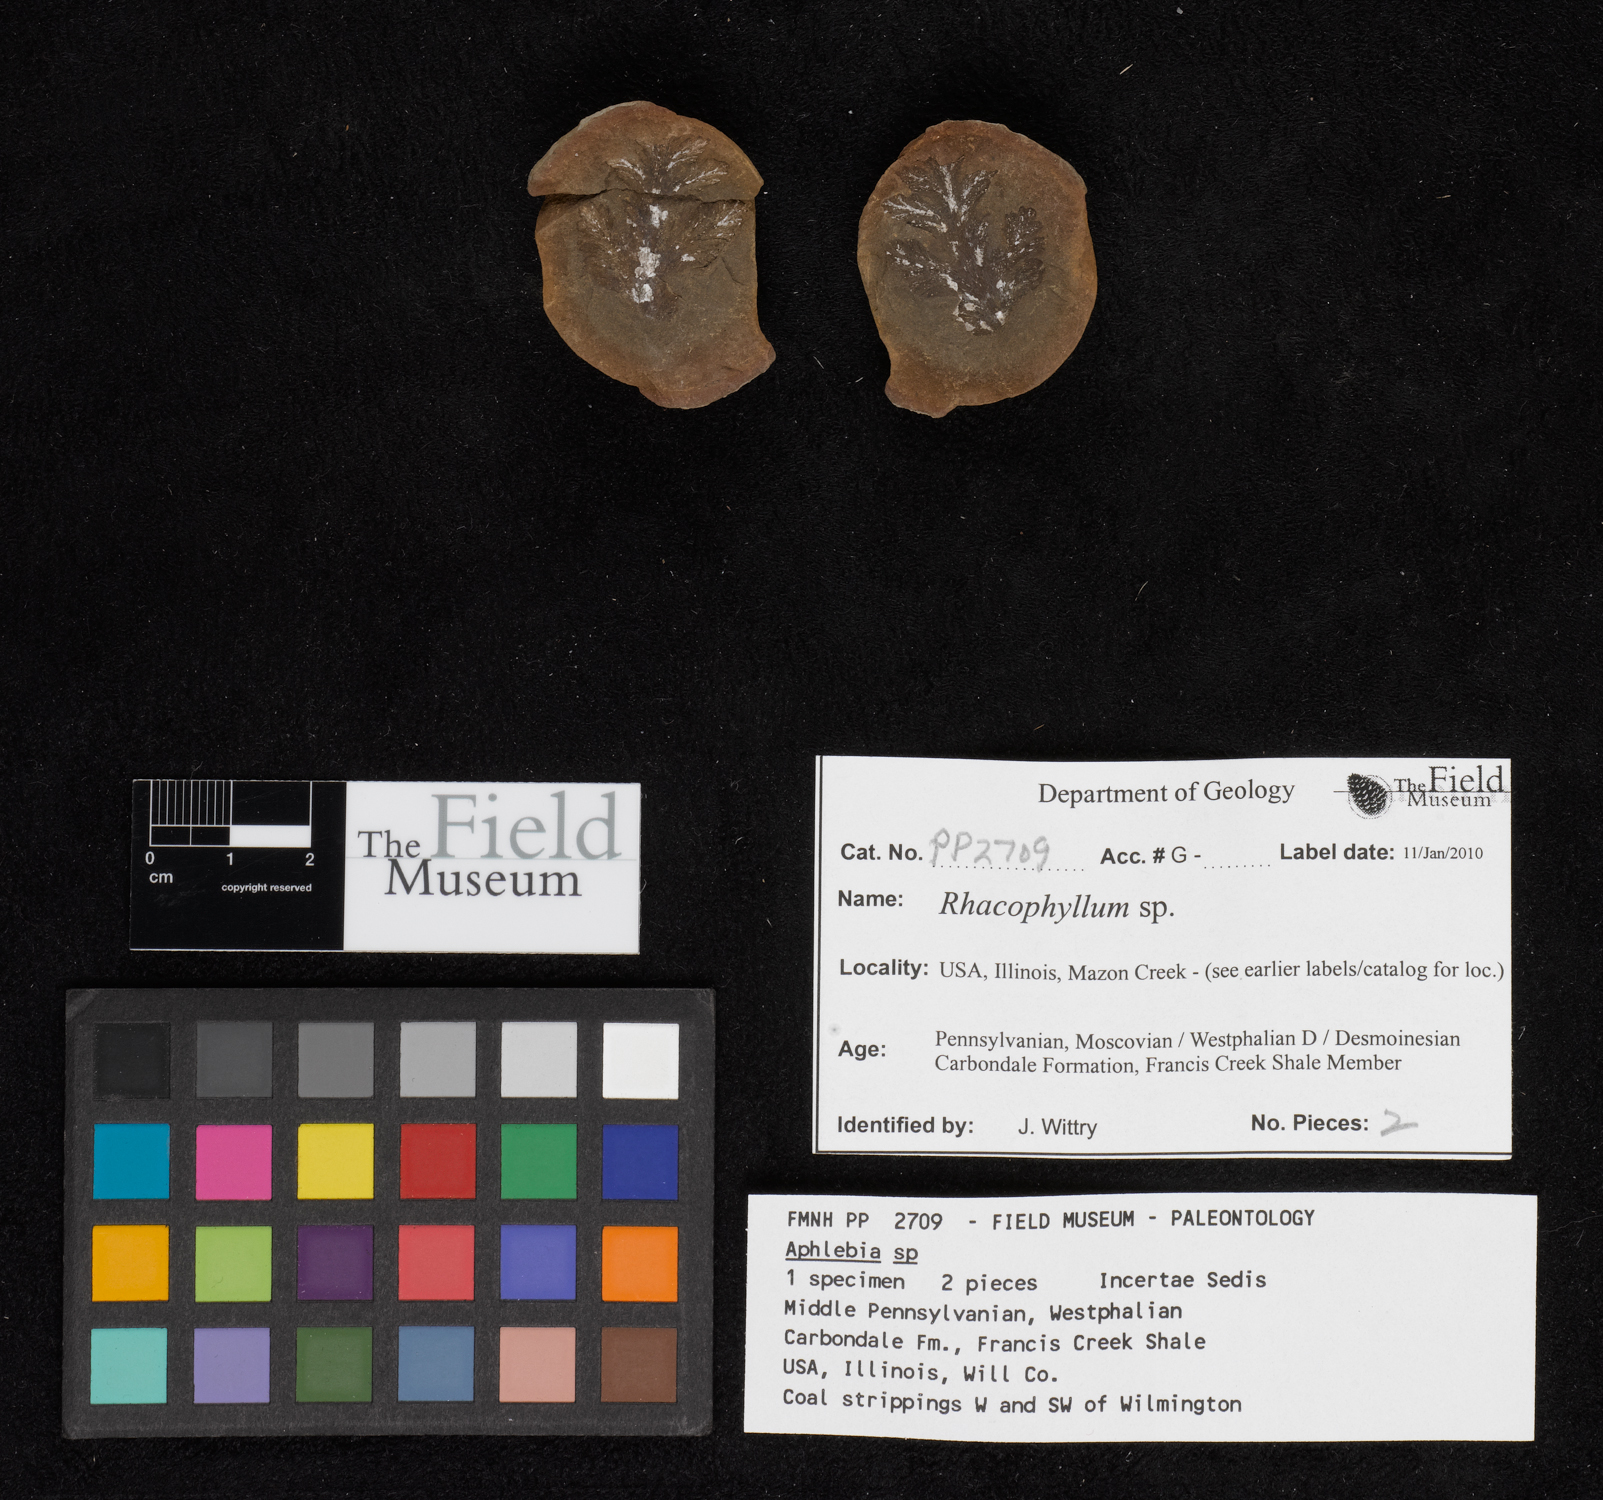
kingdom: Plantae
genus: Rhacophyllum
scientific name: Rhacophyllum
